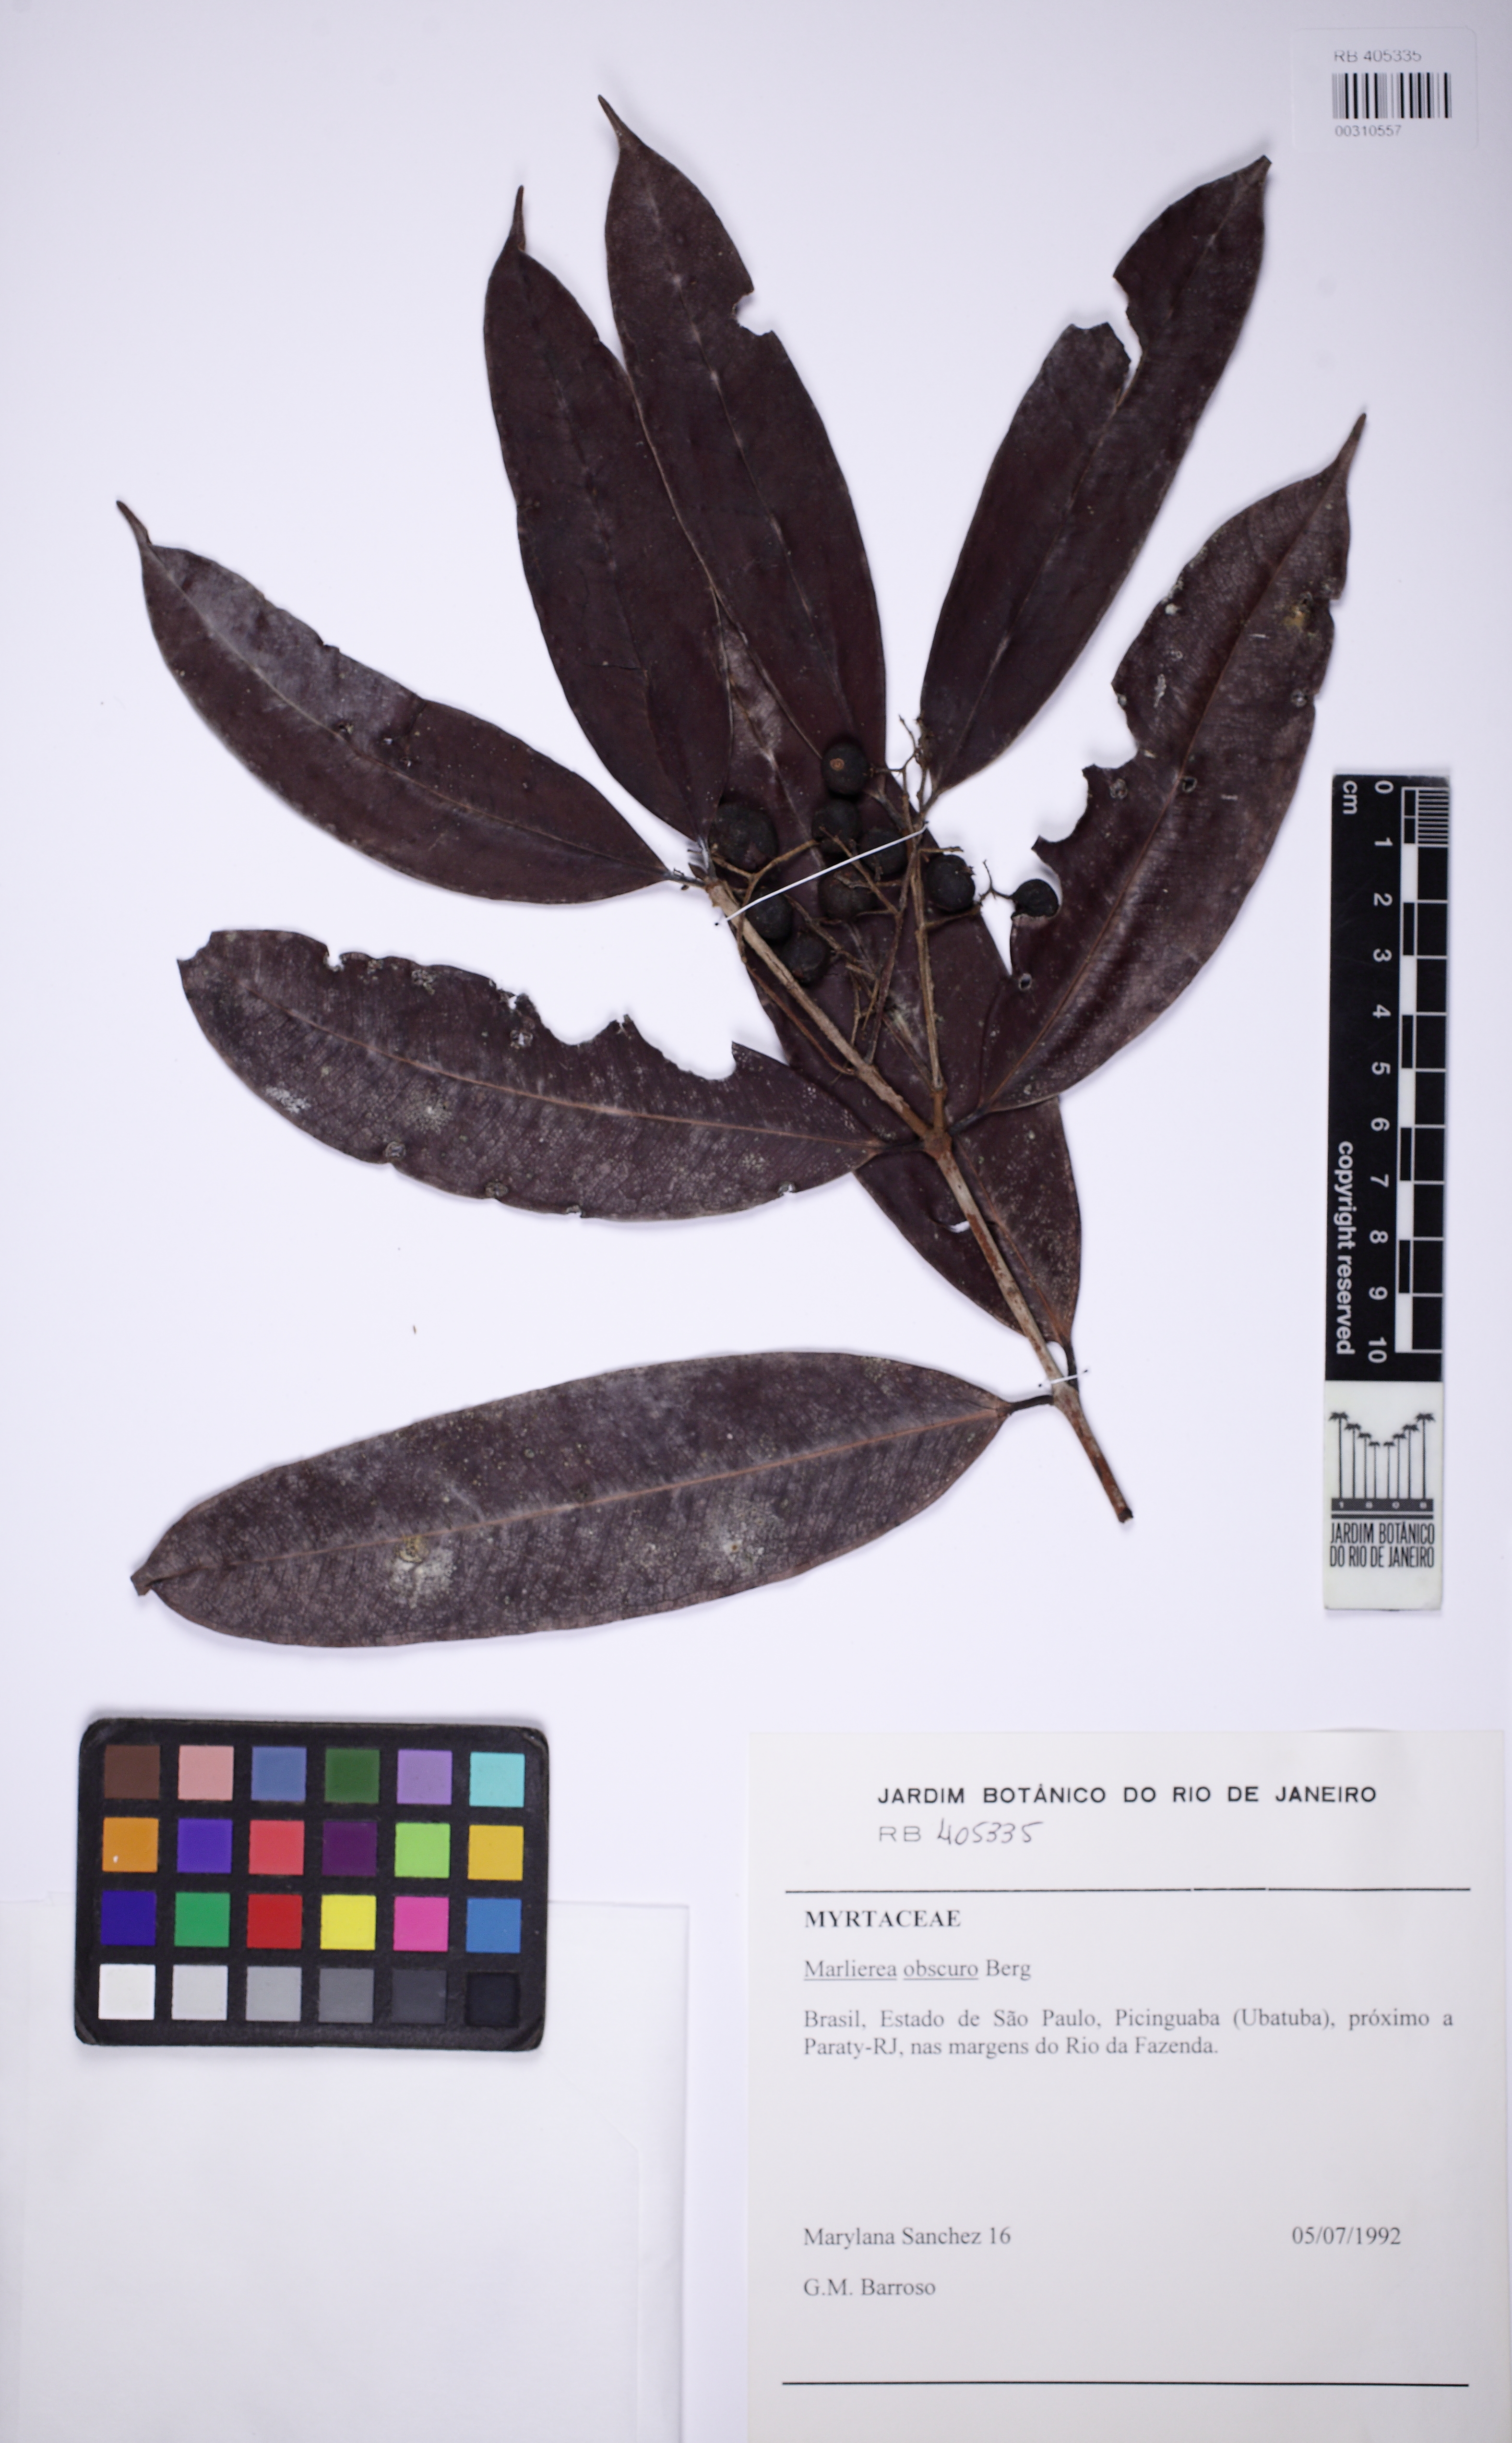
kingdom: Plantae
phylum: Tracheophyta
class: Magnoliopsida
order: Myrtales
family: Myrtaceae
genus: Myrcia
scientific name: Myrcia neoobscura
